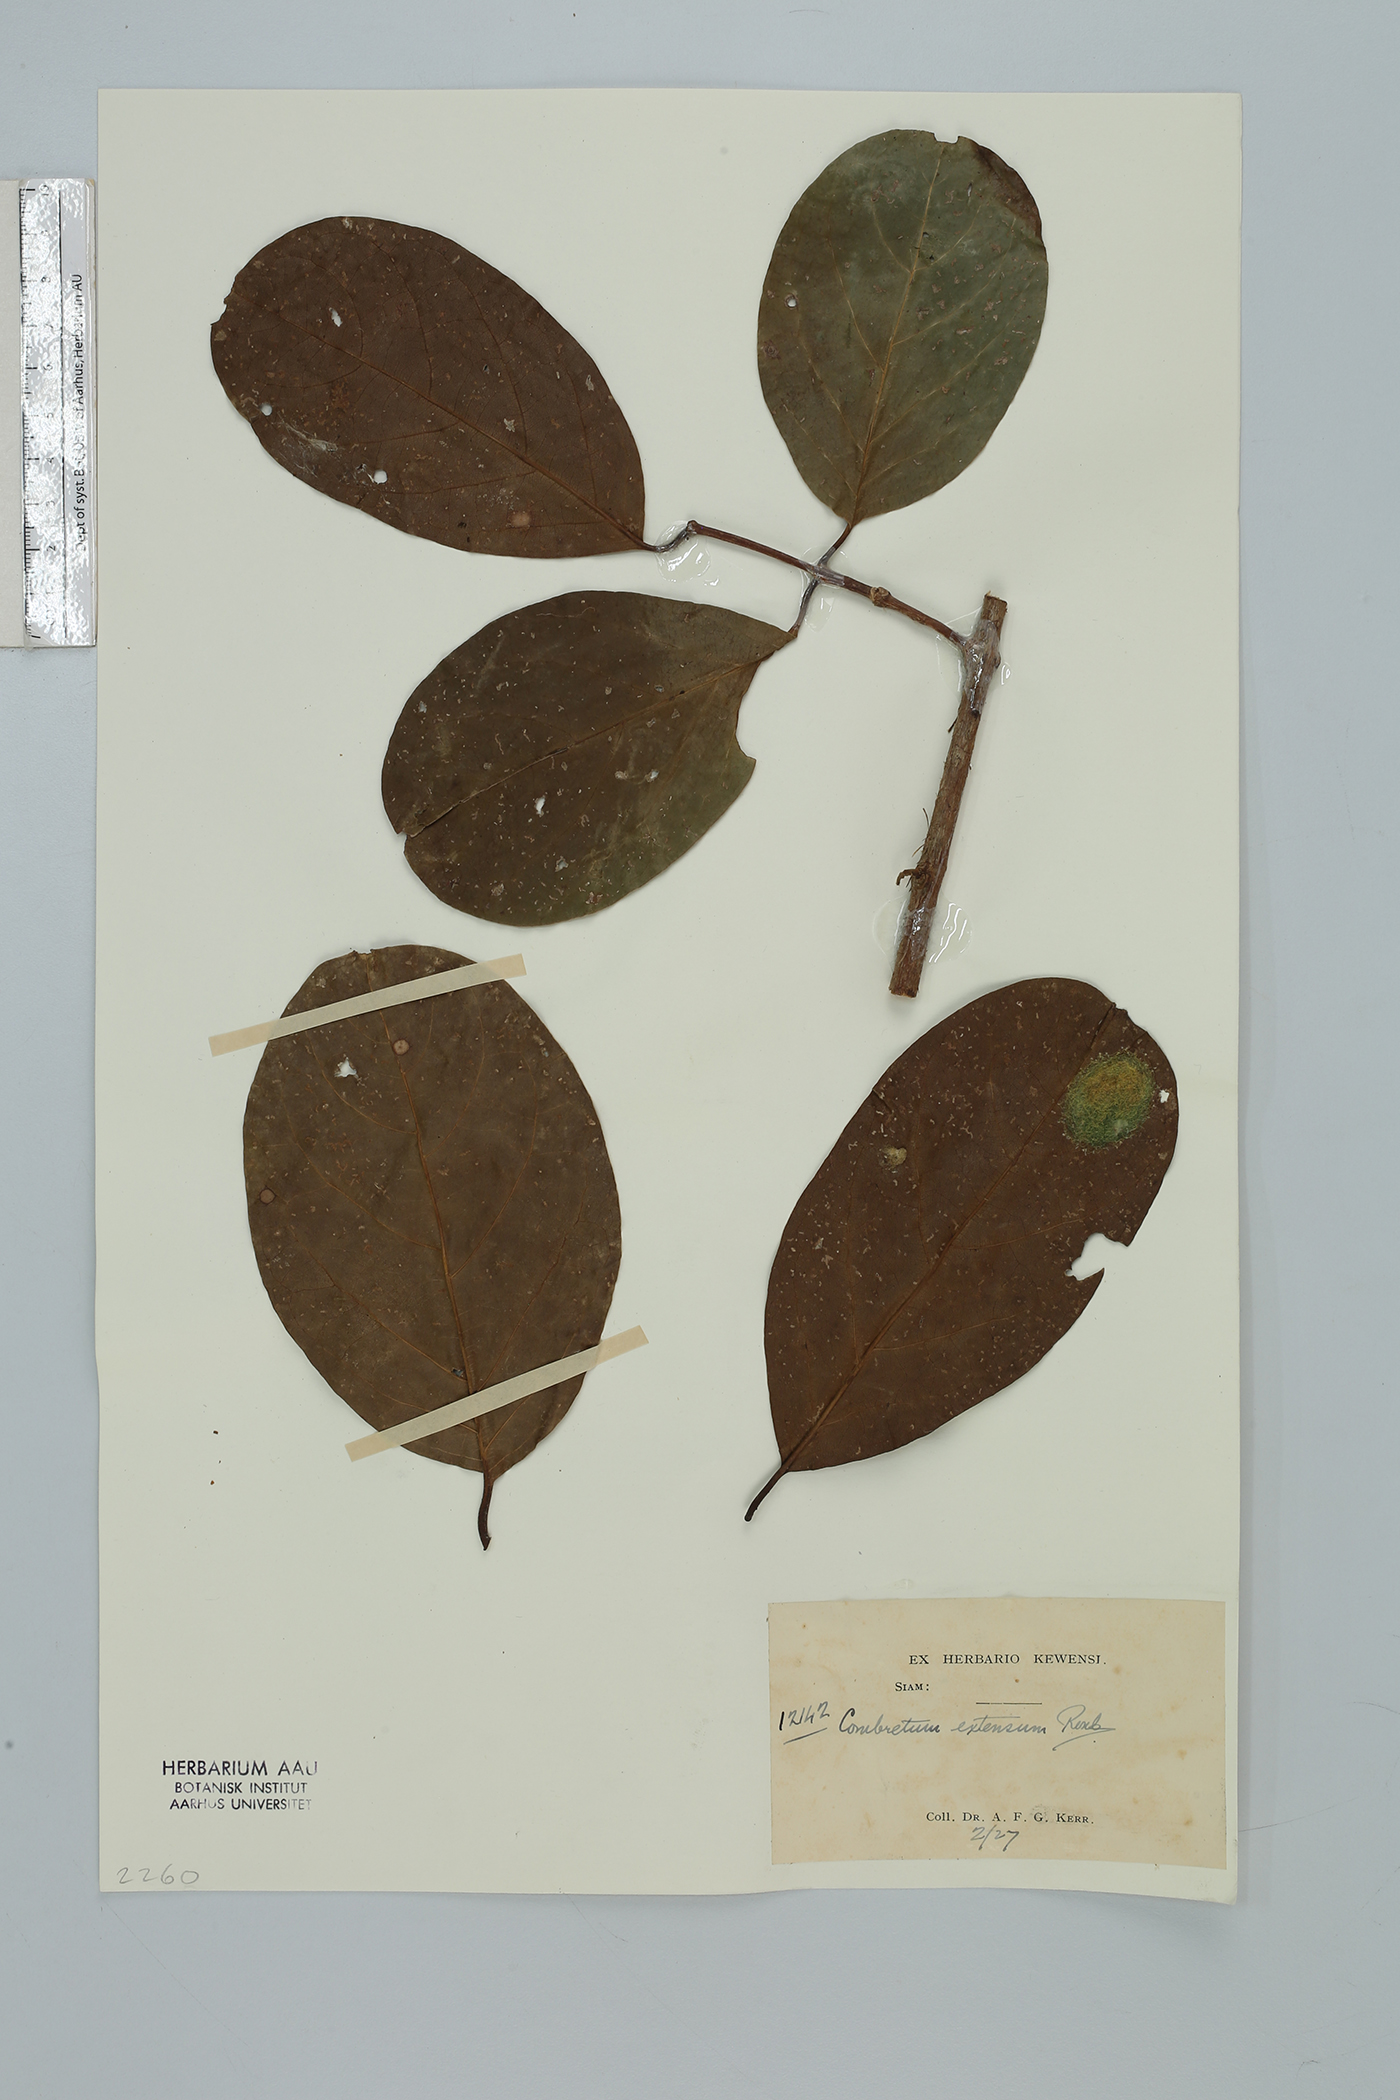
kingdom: Plantae
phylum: Tracheophyta
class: Magnoliopsida
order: Myrtales
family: Combretaceae
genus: Combretum
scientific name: Combretum latifolium
